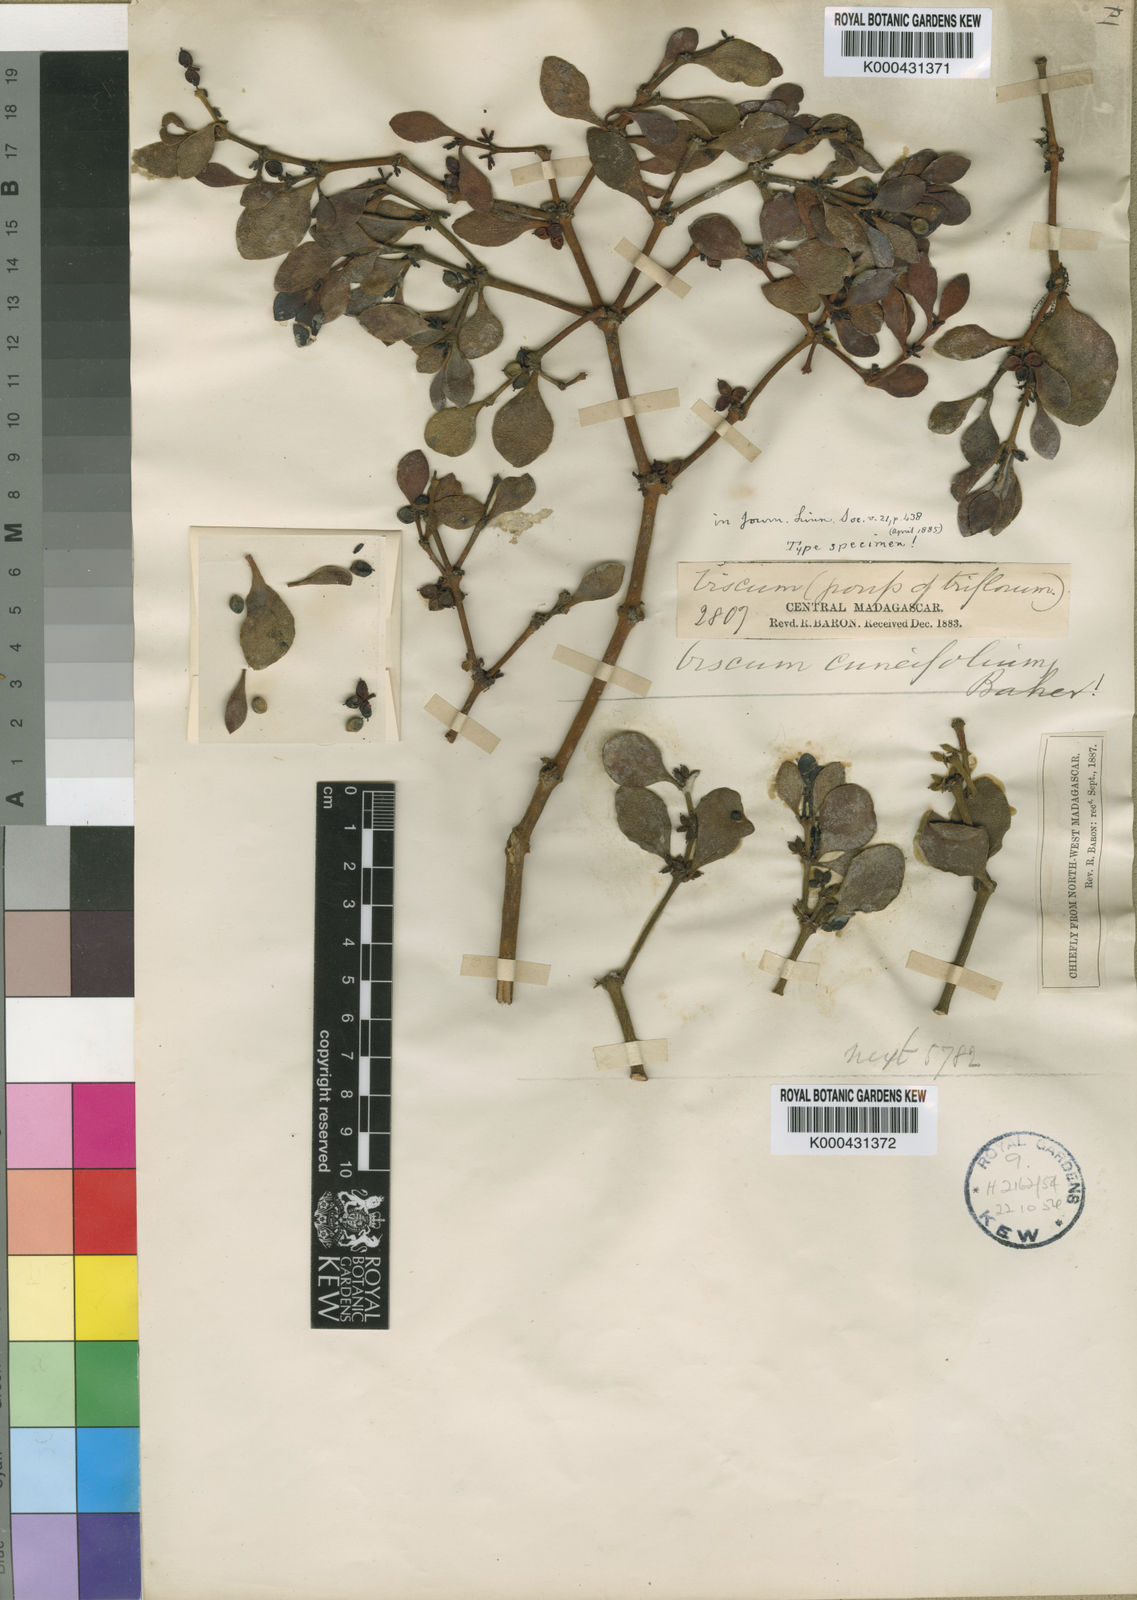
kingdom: Plantae
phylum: Tracheophyta
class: Magnoliopsida
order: Santalales
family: Viscaceae
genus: Viscum
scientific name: Viscum cuneifolium
